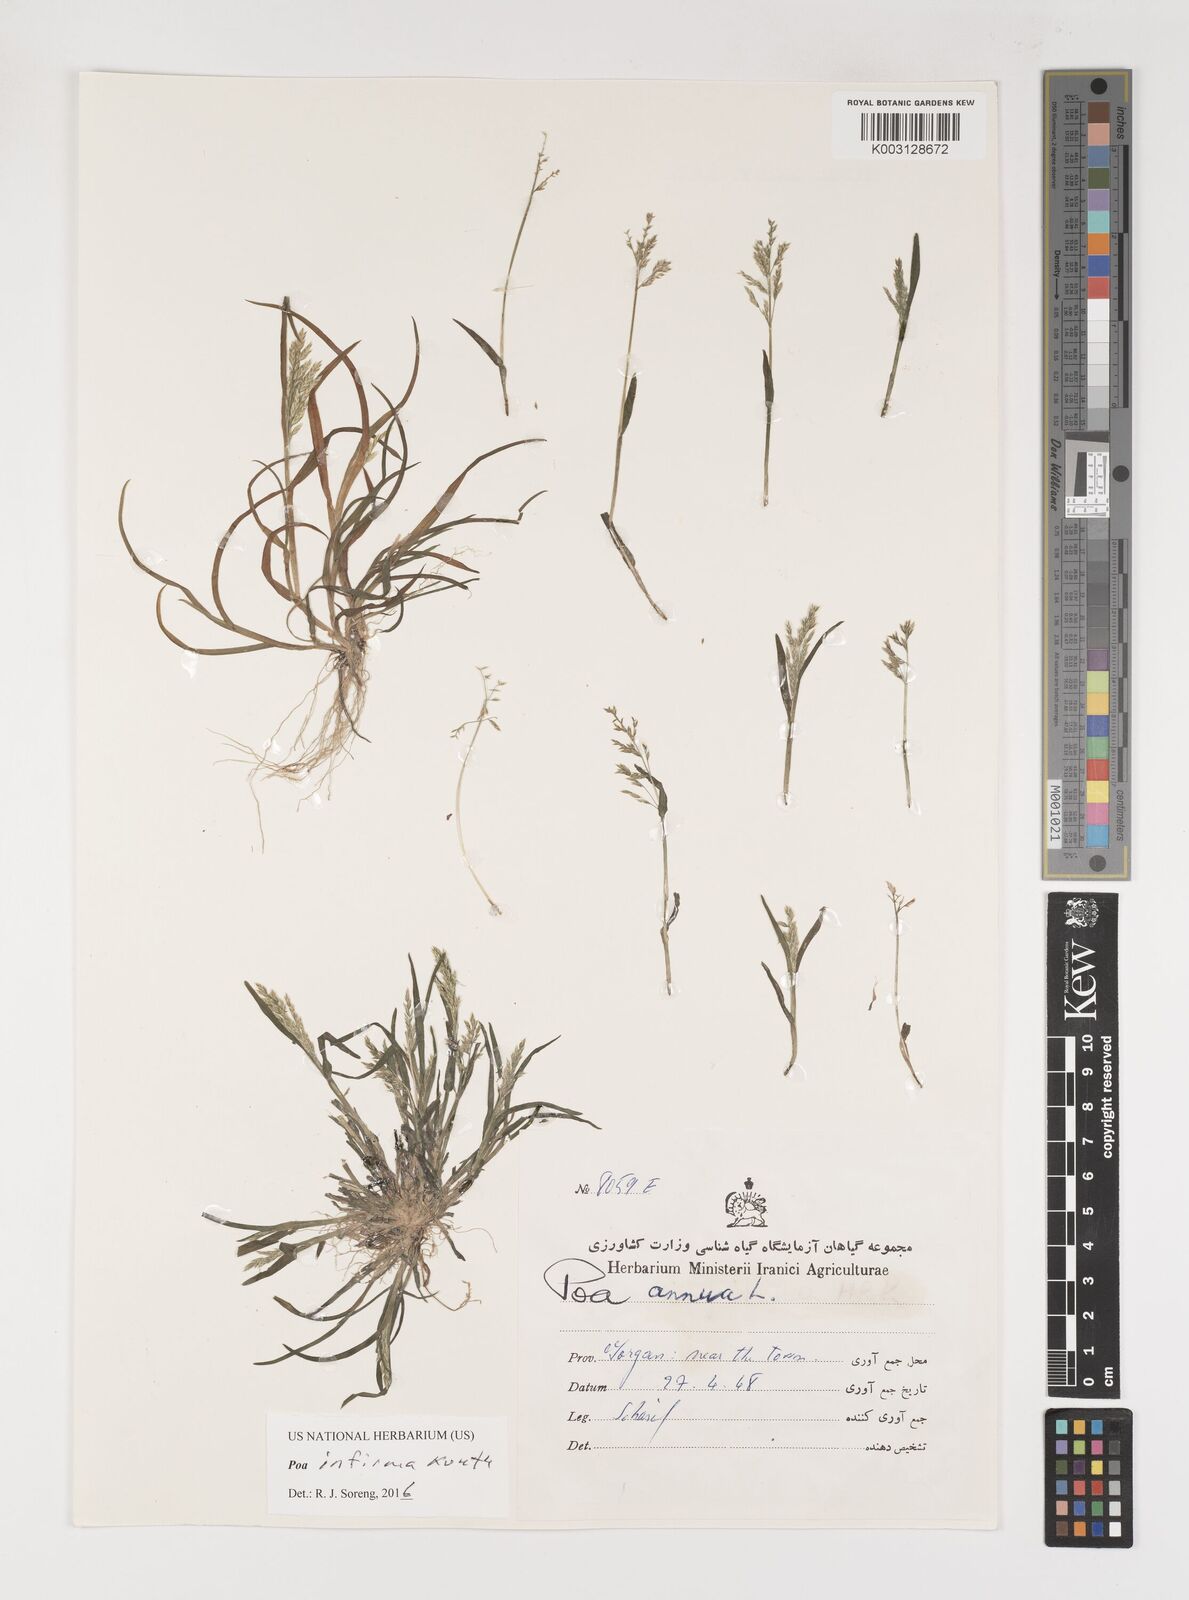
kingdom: Plantae
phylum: Tracheophyta
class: Liliopsida
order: Poales
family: Poaceae
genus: Poa
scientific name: Poa infirma
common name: Weak bluegrass
